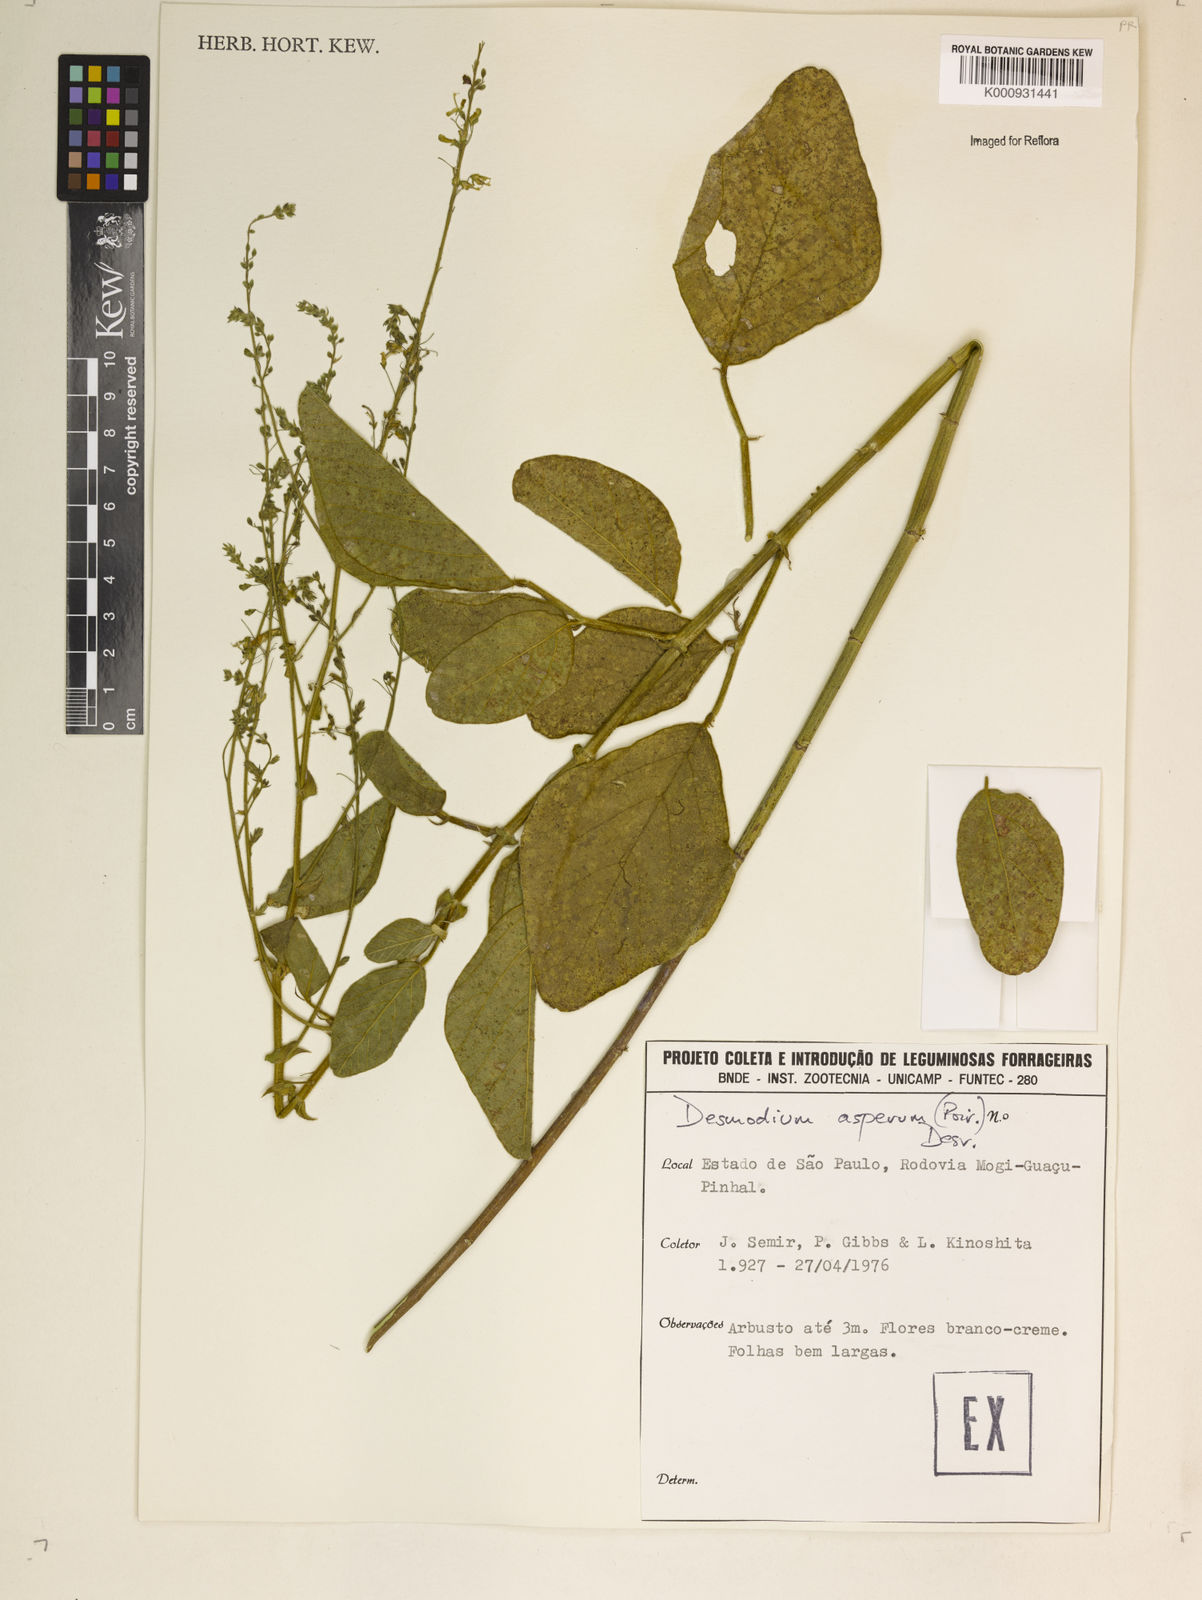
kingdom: Plantae
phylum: Tracheophyta
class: Magnoliopsida
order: Fabales
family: Fabaceae
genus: Desmodium
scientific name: Desmodium distortum
